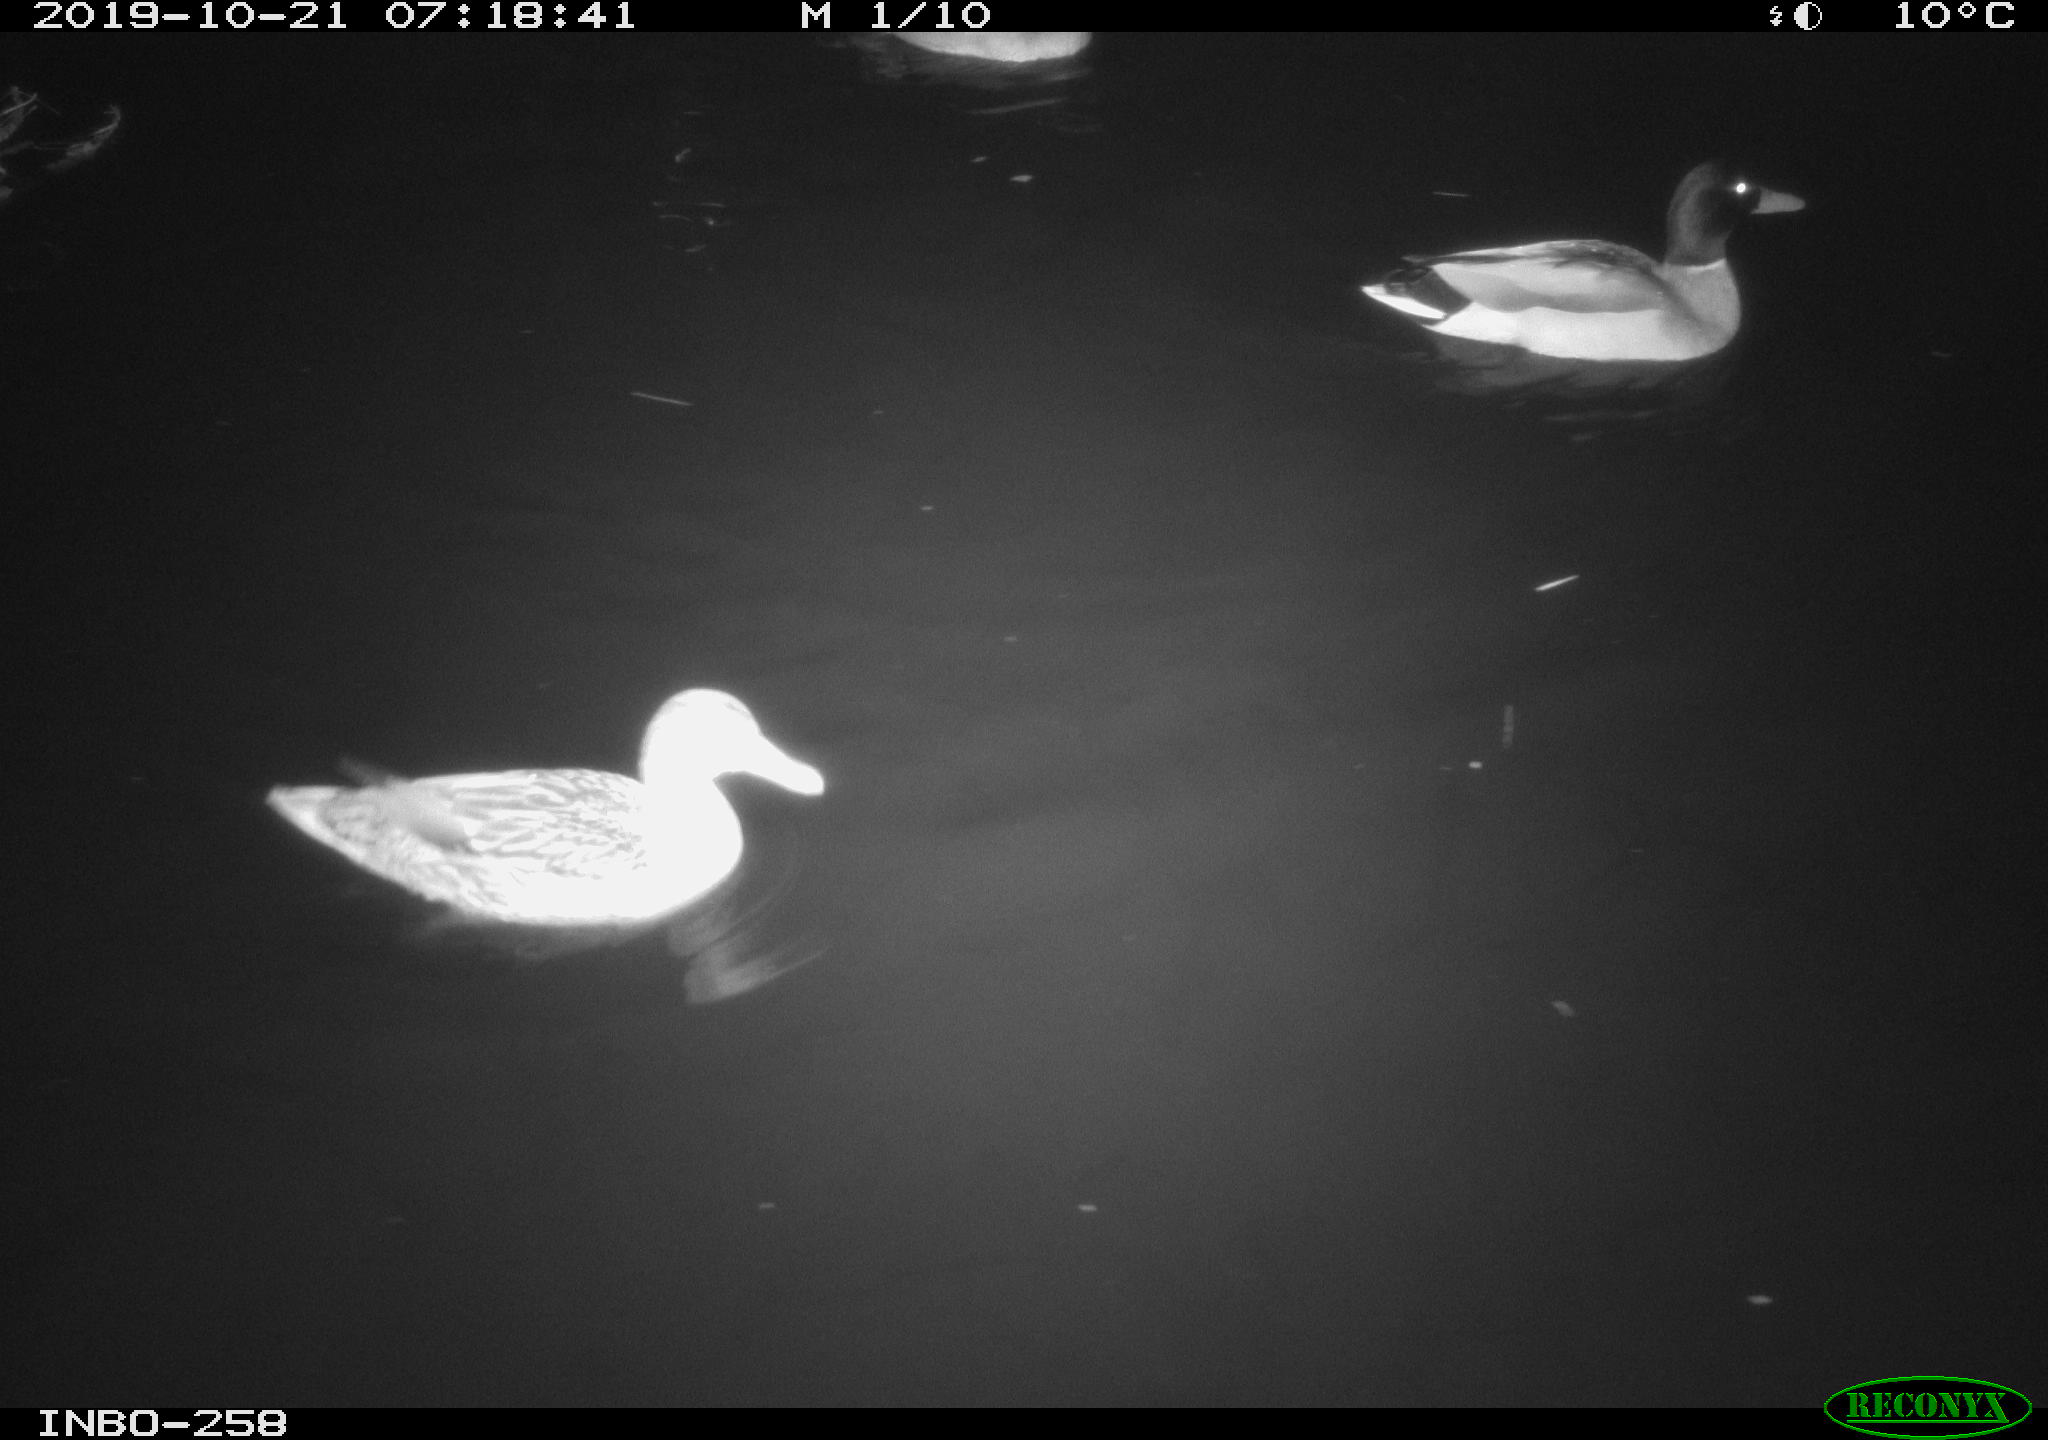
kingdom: Animalia
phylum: Chordata
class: Aves
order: Anseriformes
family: Anatidae
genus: Anas
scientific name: Anas platyrhynchos
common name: Mallard
